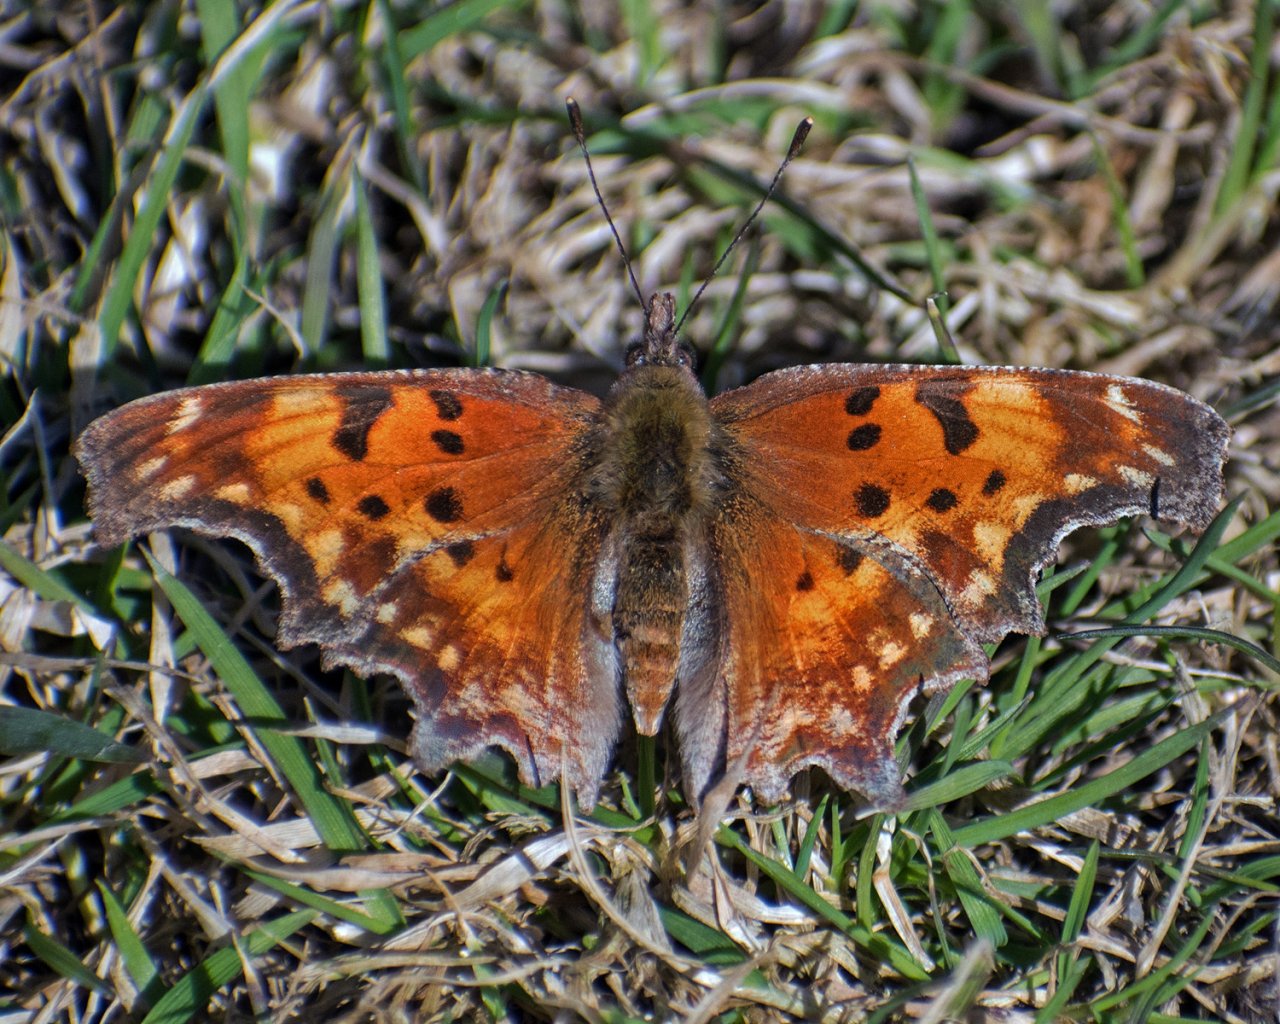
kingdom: Animalia
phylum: Arthropoda
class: Insecta
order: Lepidoptera
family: Nymphalidae
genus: Polygonia
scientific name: Polygonia gracilis
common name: Hoary Comma
